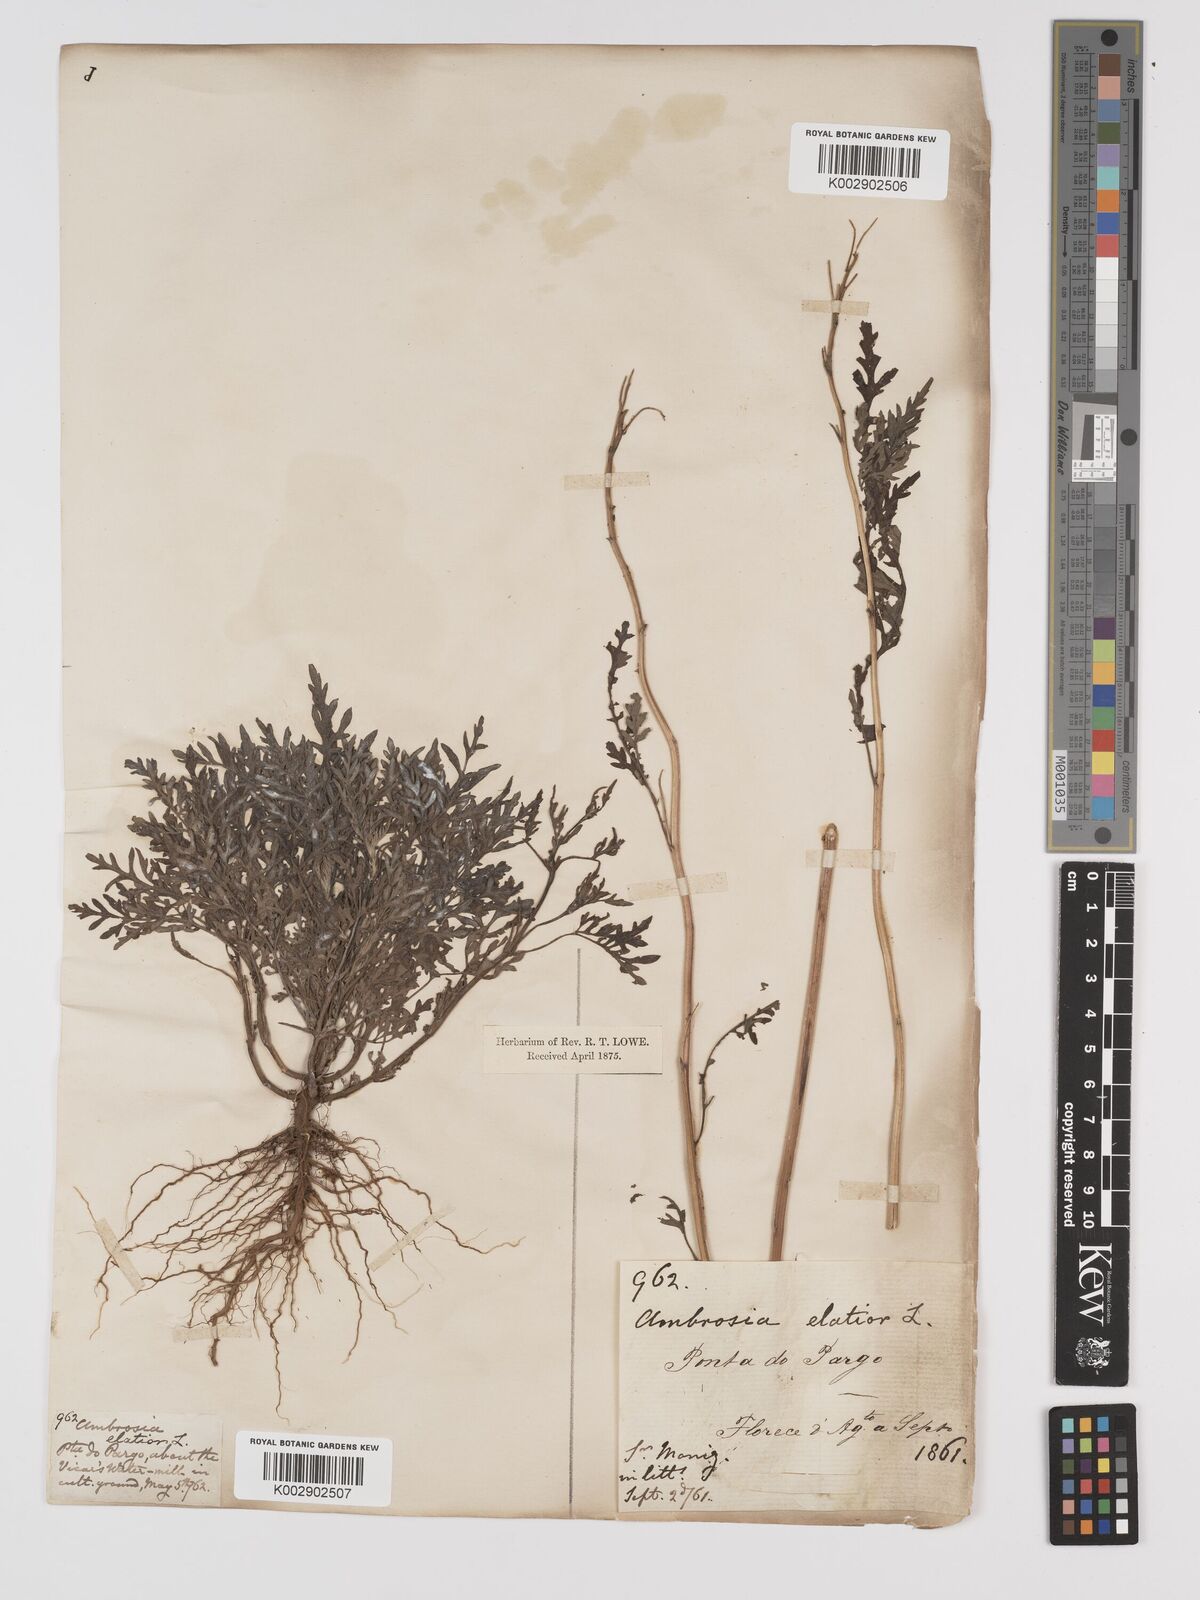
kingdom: Plantae
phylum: Tracheophyta
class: Magnoliopsida
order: Asterales
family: Asteraceae
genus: Ambrosia
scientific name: Ambrosia artemisiifolia
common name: Annual ragweed
